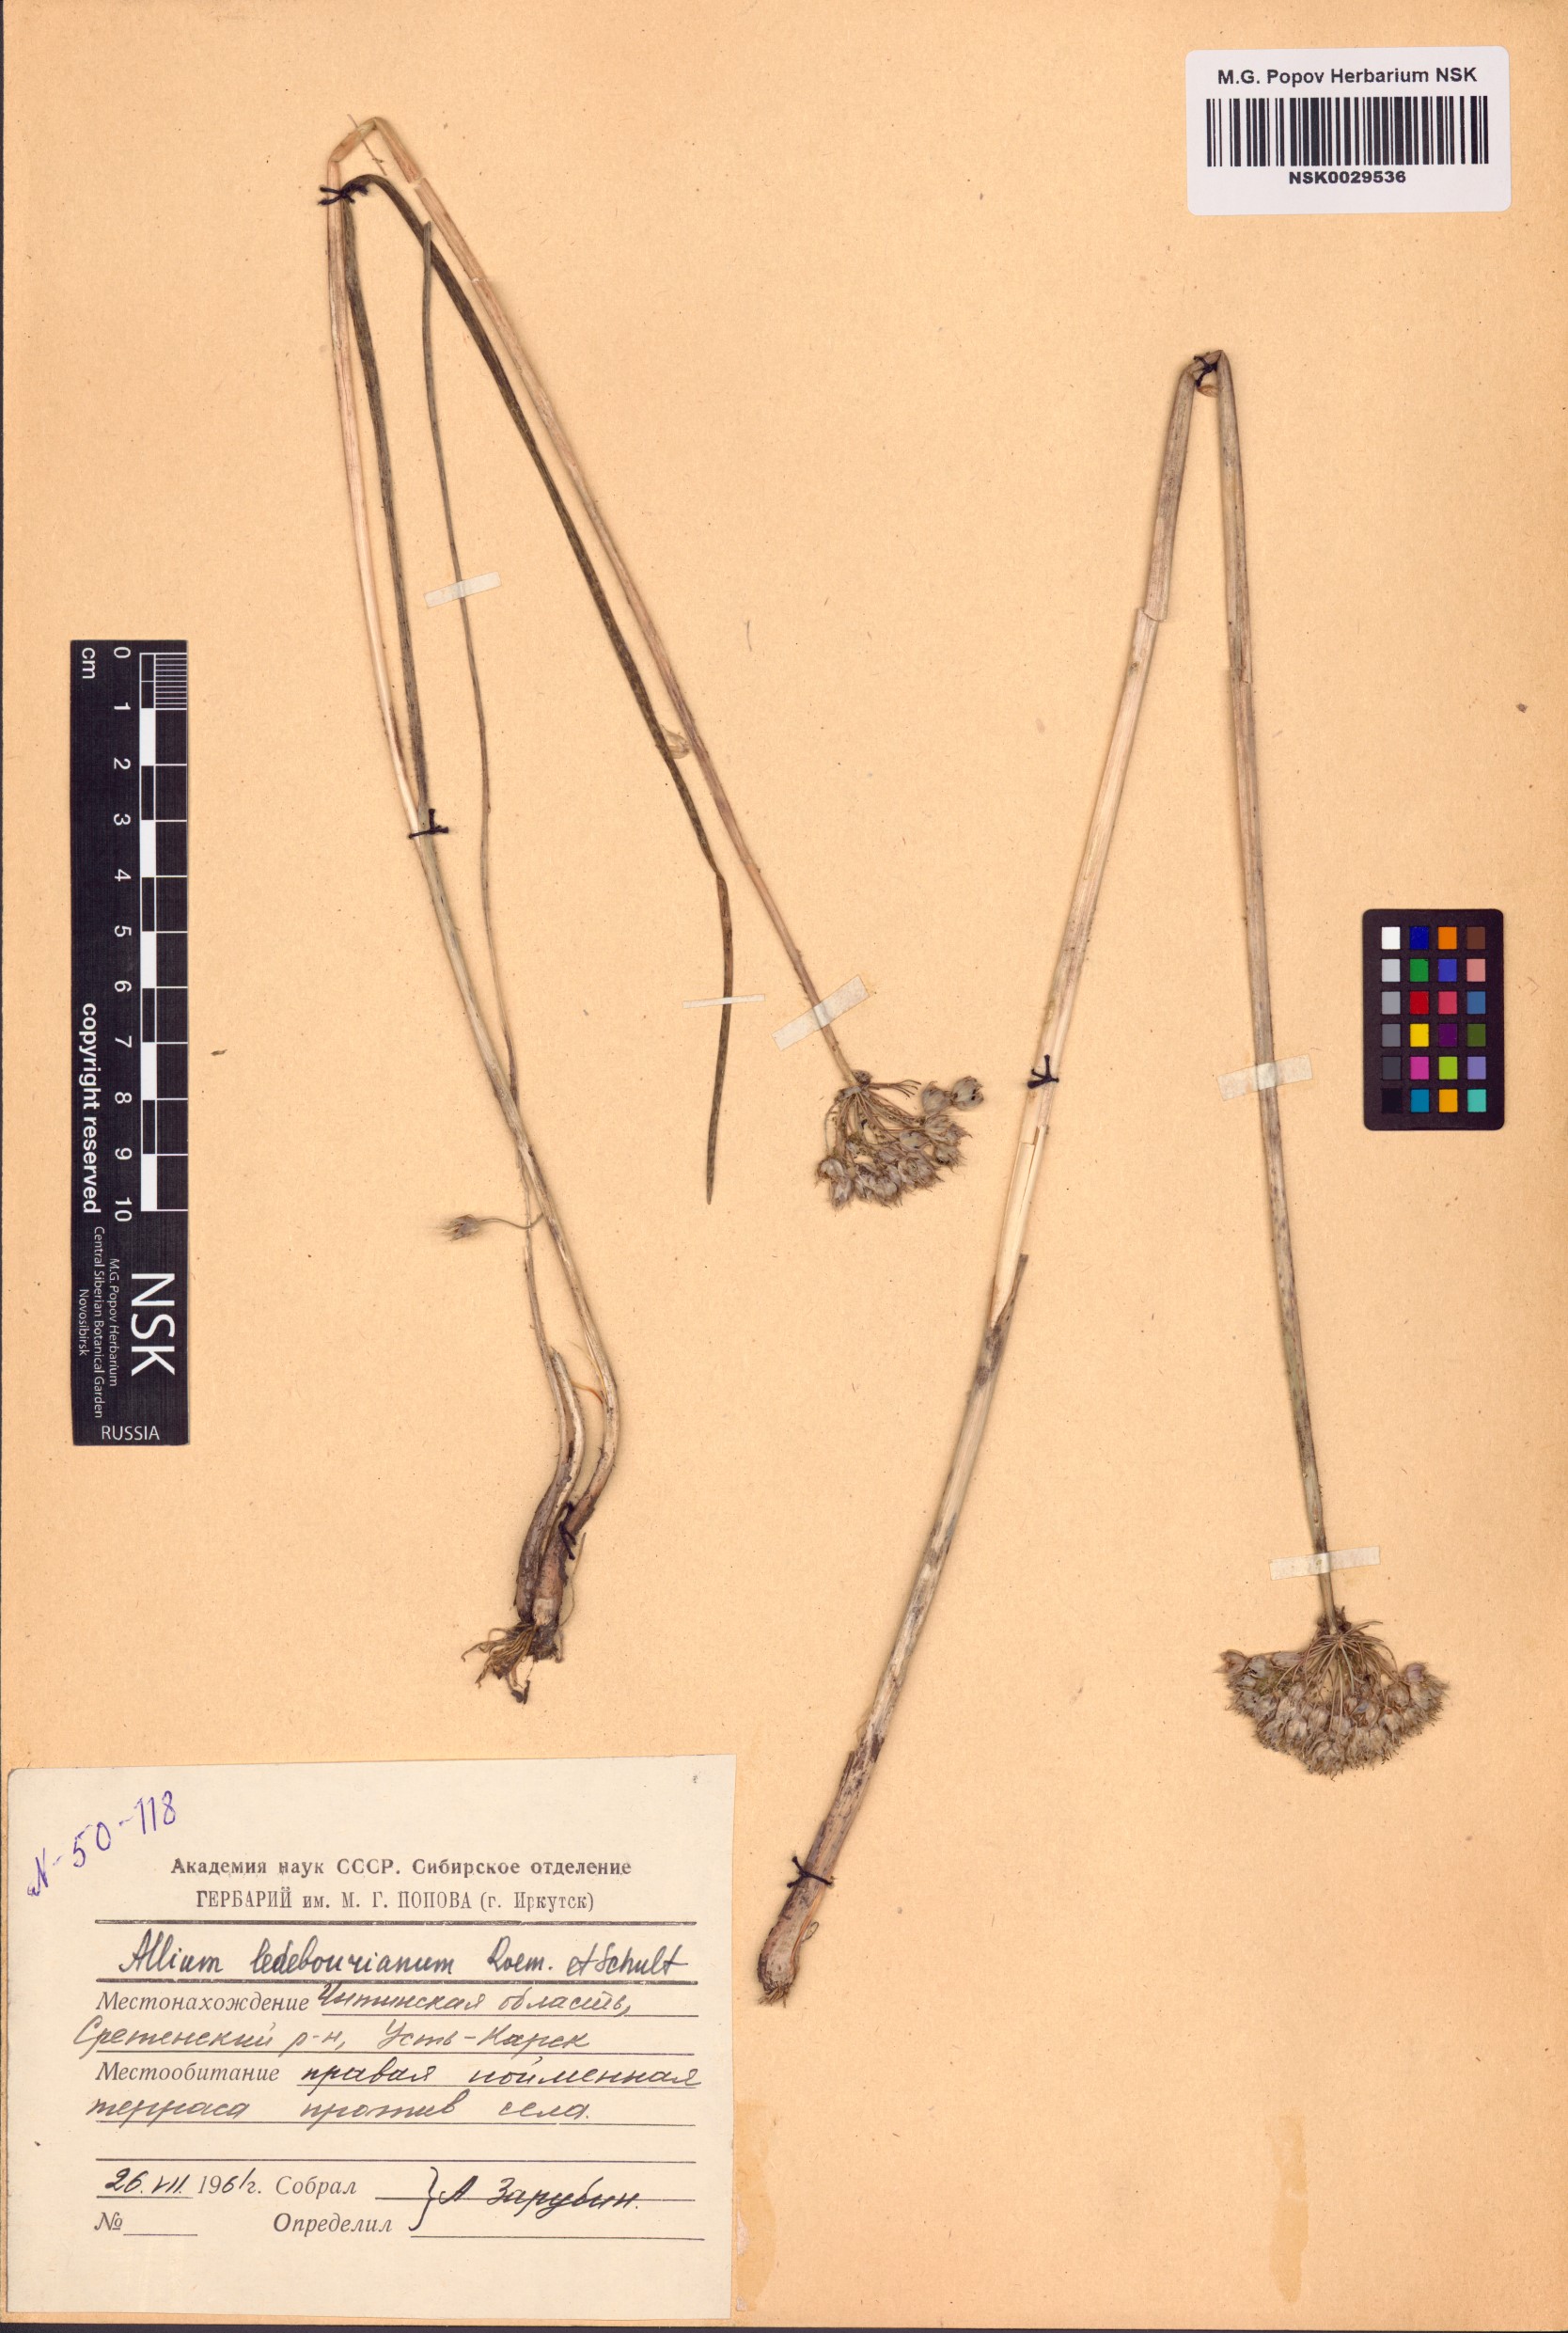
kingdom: Plantae
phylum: Tracheophyta
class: Liliopsida
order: Asparagales
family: Amaryllidaceae
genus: Allium
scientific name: Allium ledebourianum
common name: Ledebour chive
